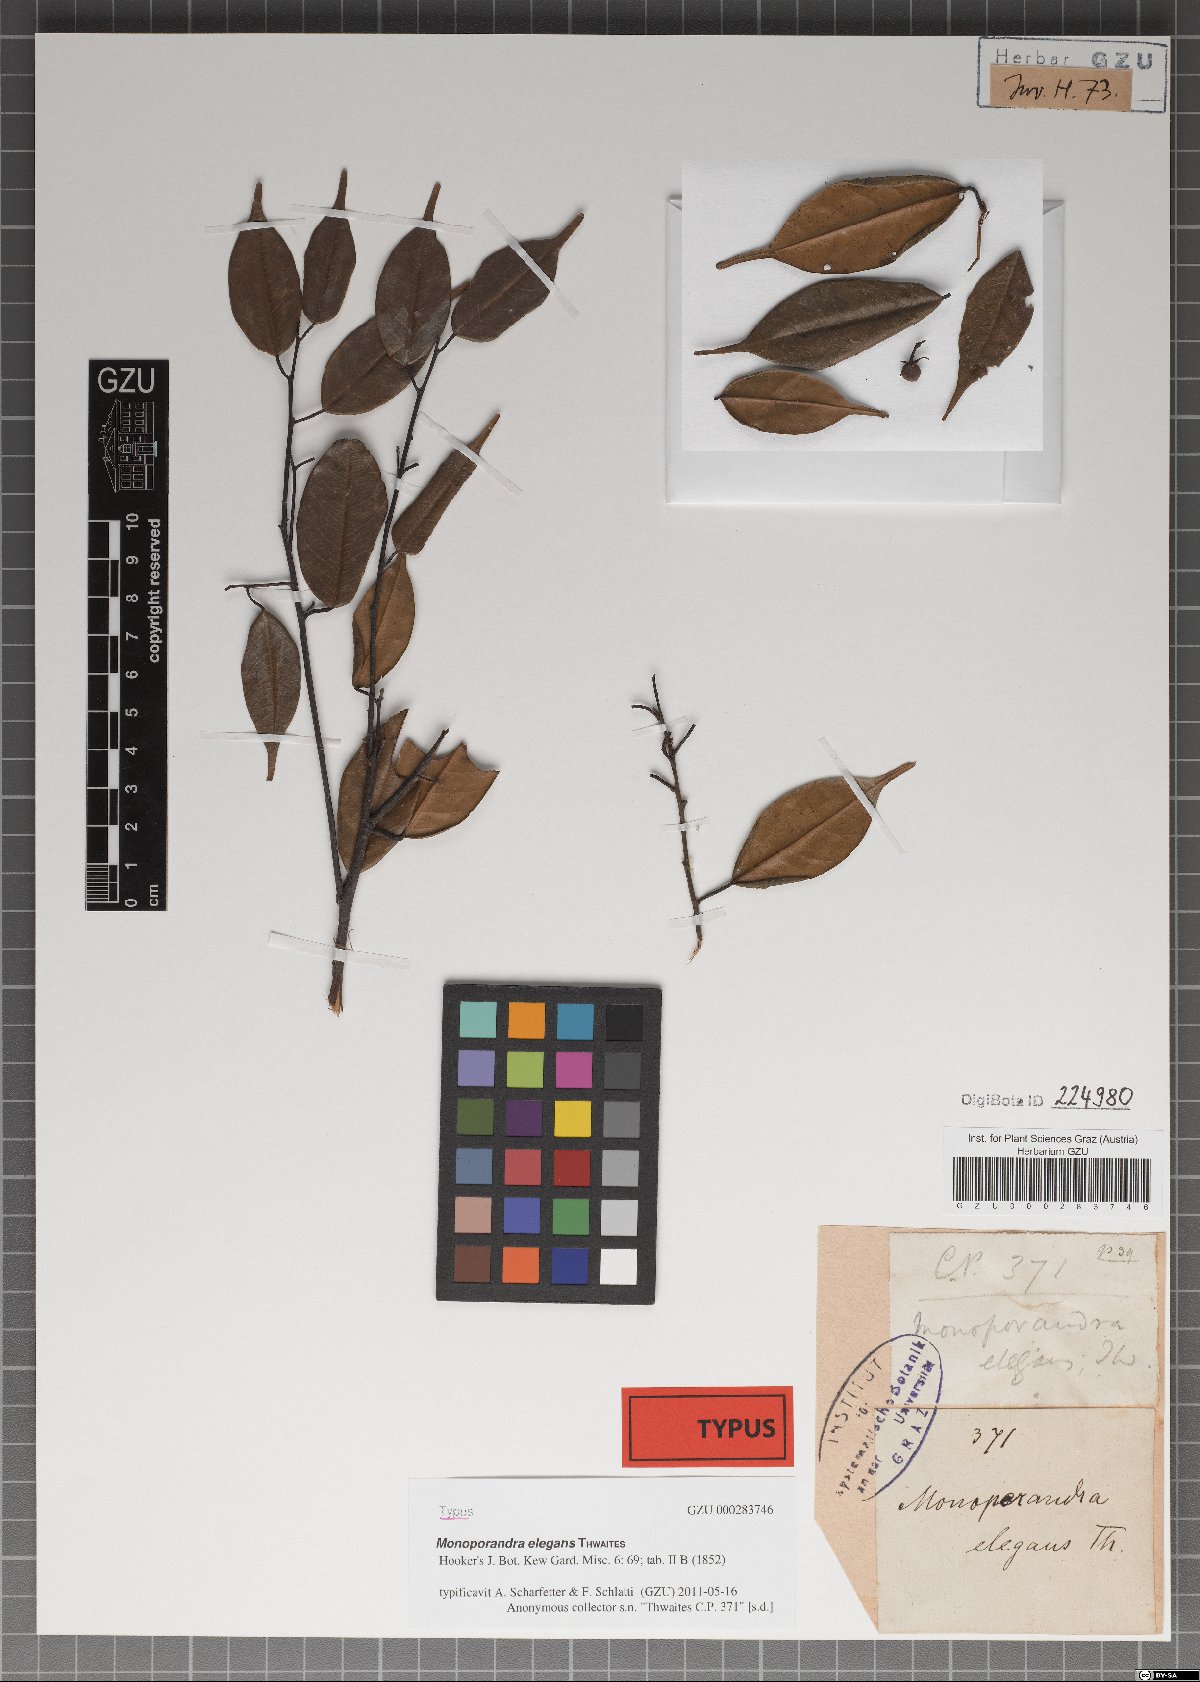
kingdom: Plantae
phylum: Tracheophyta
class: Magnoliopsida
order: Malvales
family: Dipterocarpaceae
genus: Stemonoporus
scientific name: Stemonoporus elegans
